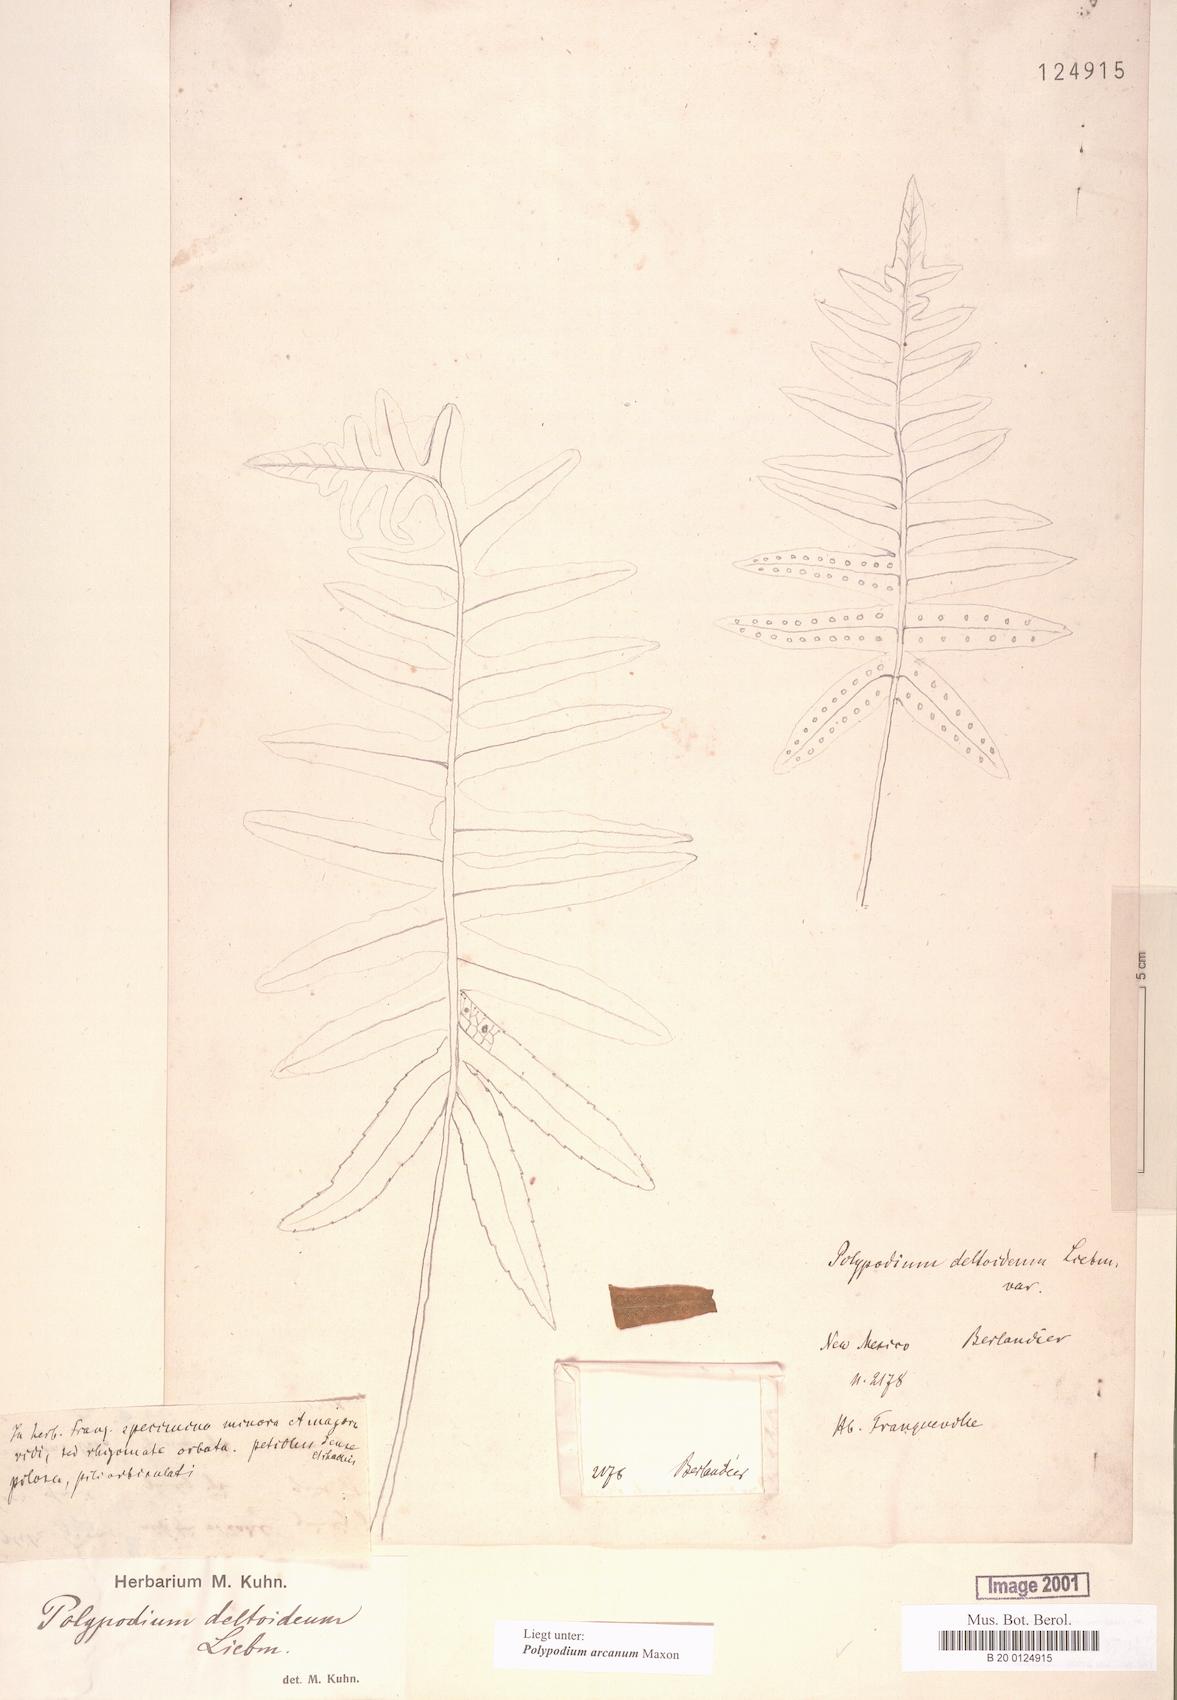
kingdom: Plantae
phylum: Tracheophyta
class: Polypodiopsida
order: Polypodiales
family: Polypodiaceae
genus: Polypodium
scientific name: Polypodium arcanum
